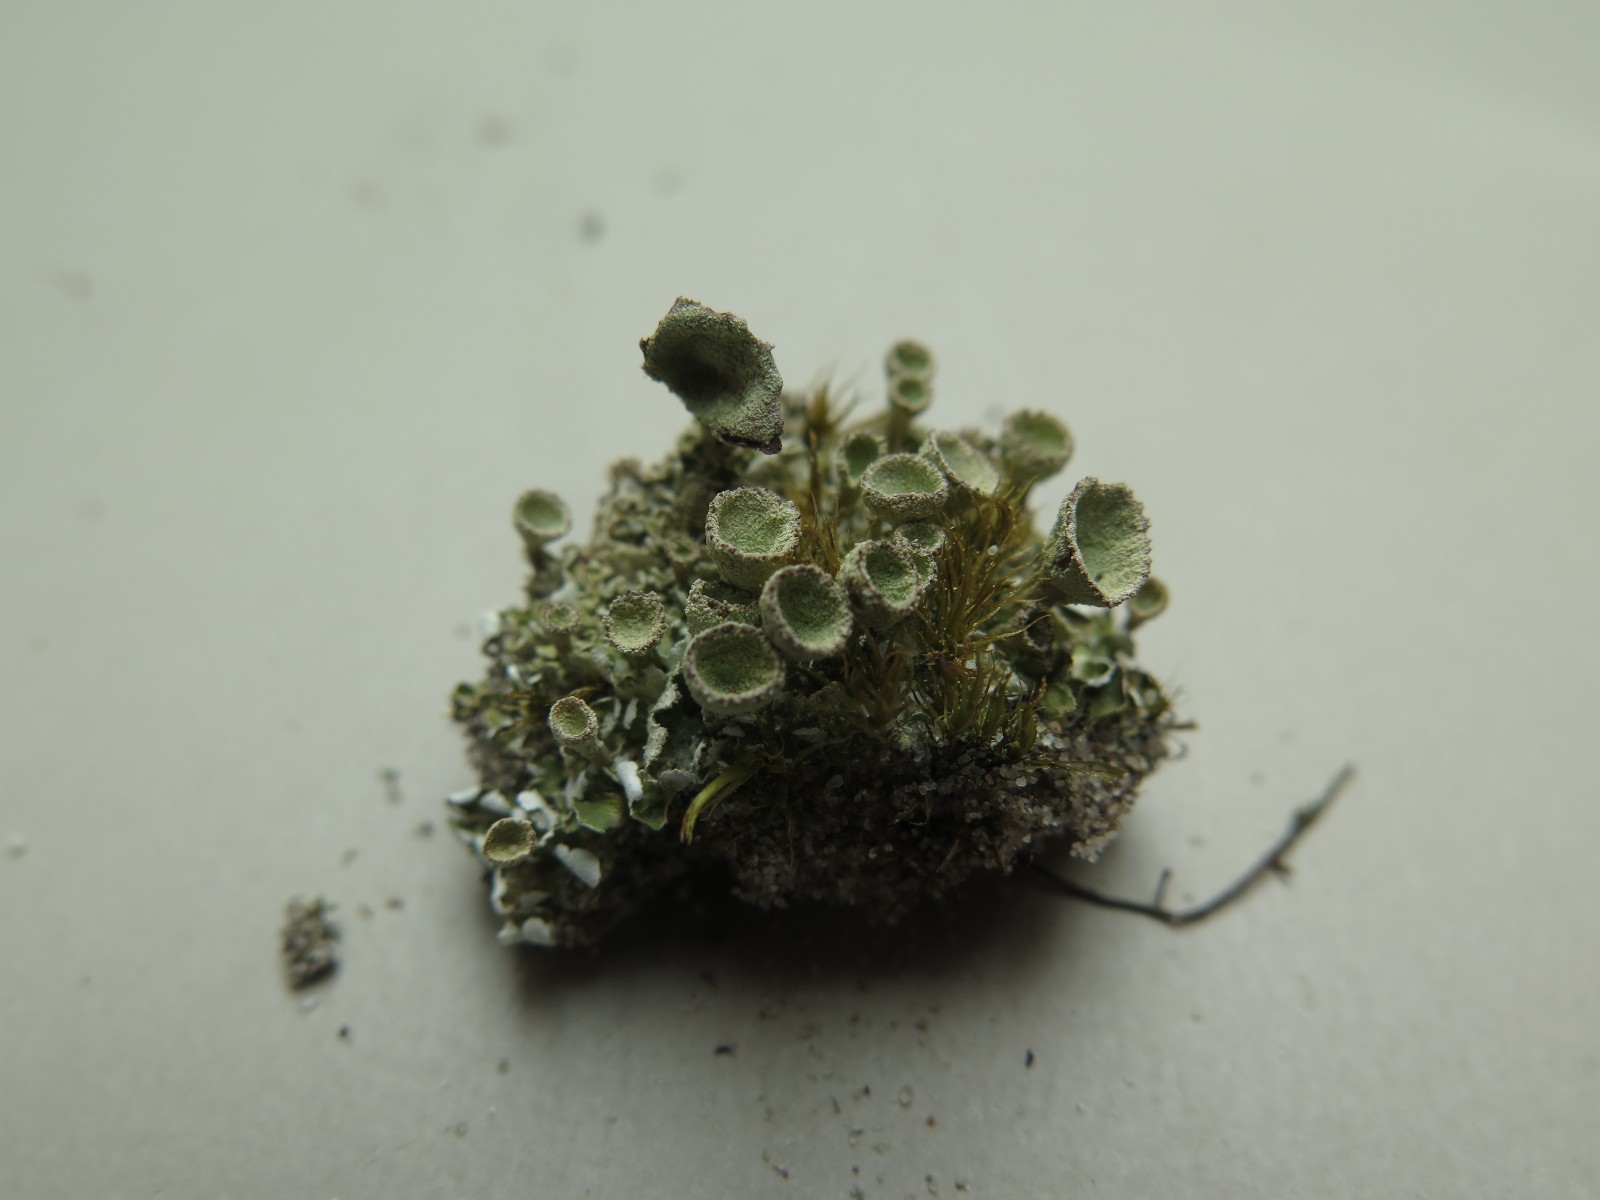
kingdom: Fungi
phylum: Ascomycota
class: Lecanoromycetes
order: Lecanorales
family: Cladoniaceae
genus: Cladonia
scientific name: Cladonia humilis
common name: lav bægerlav
